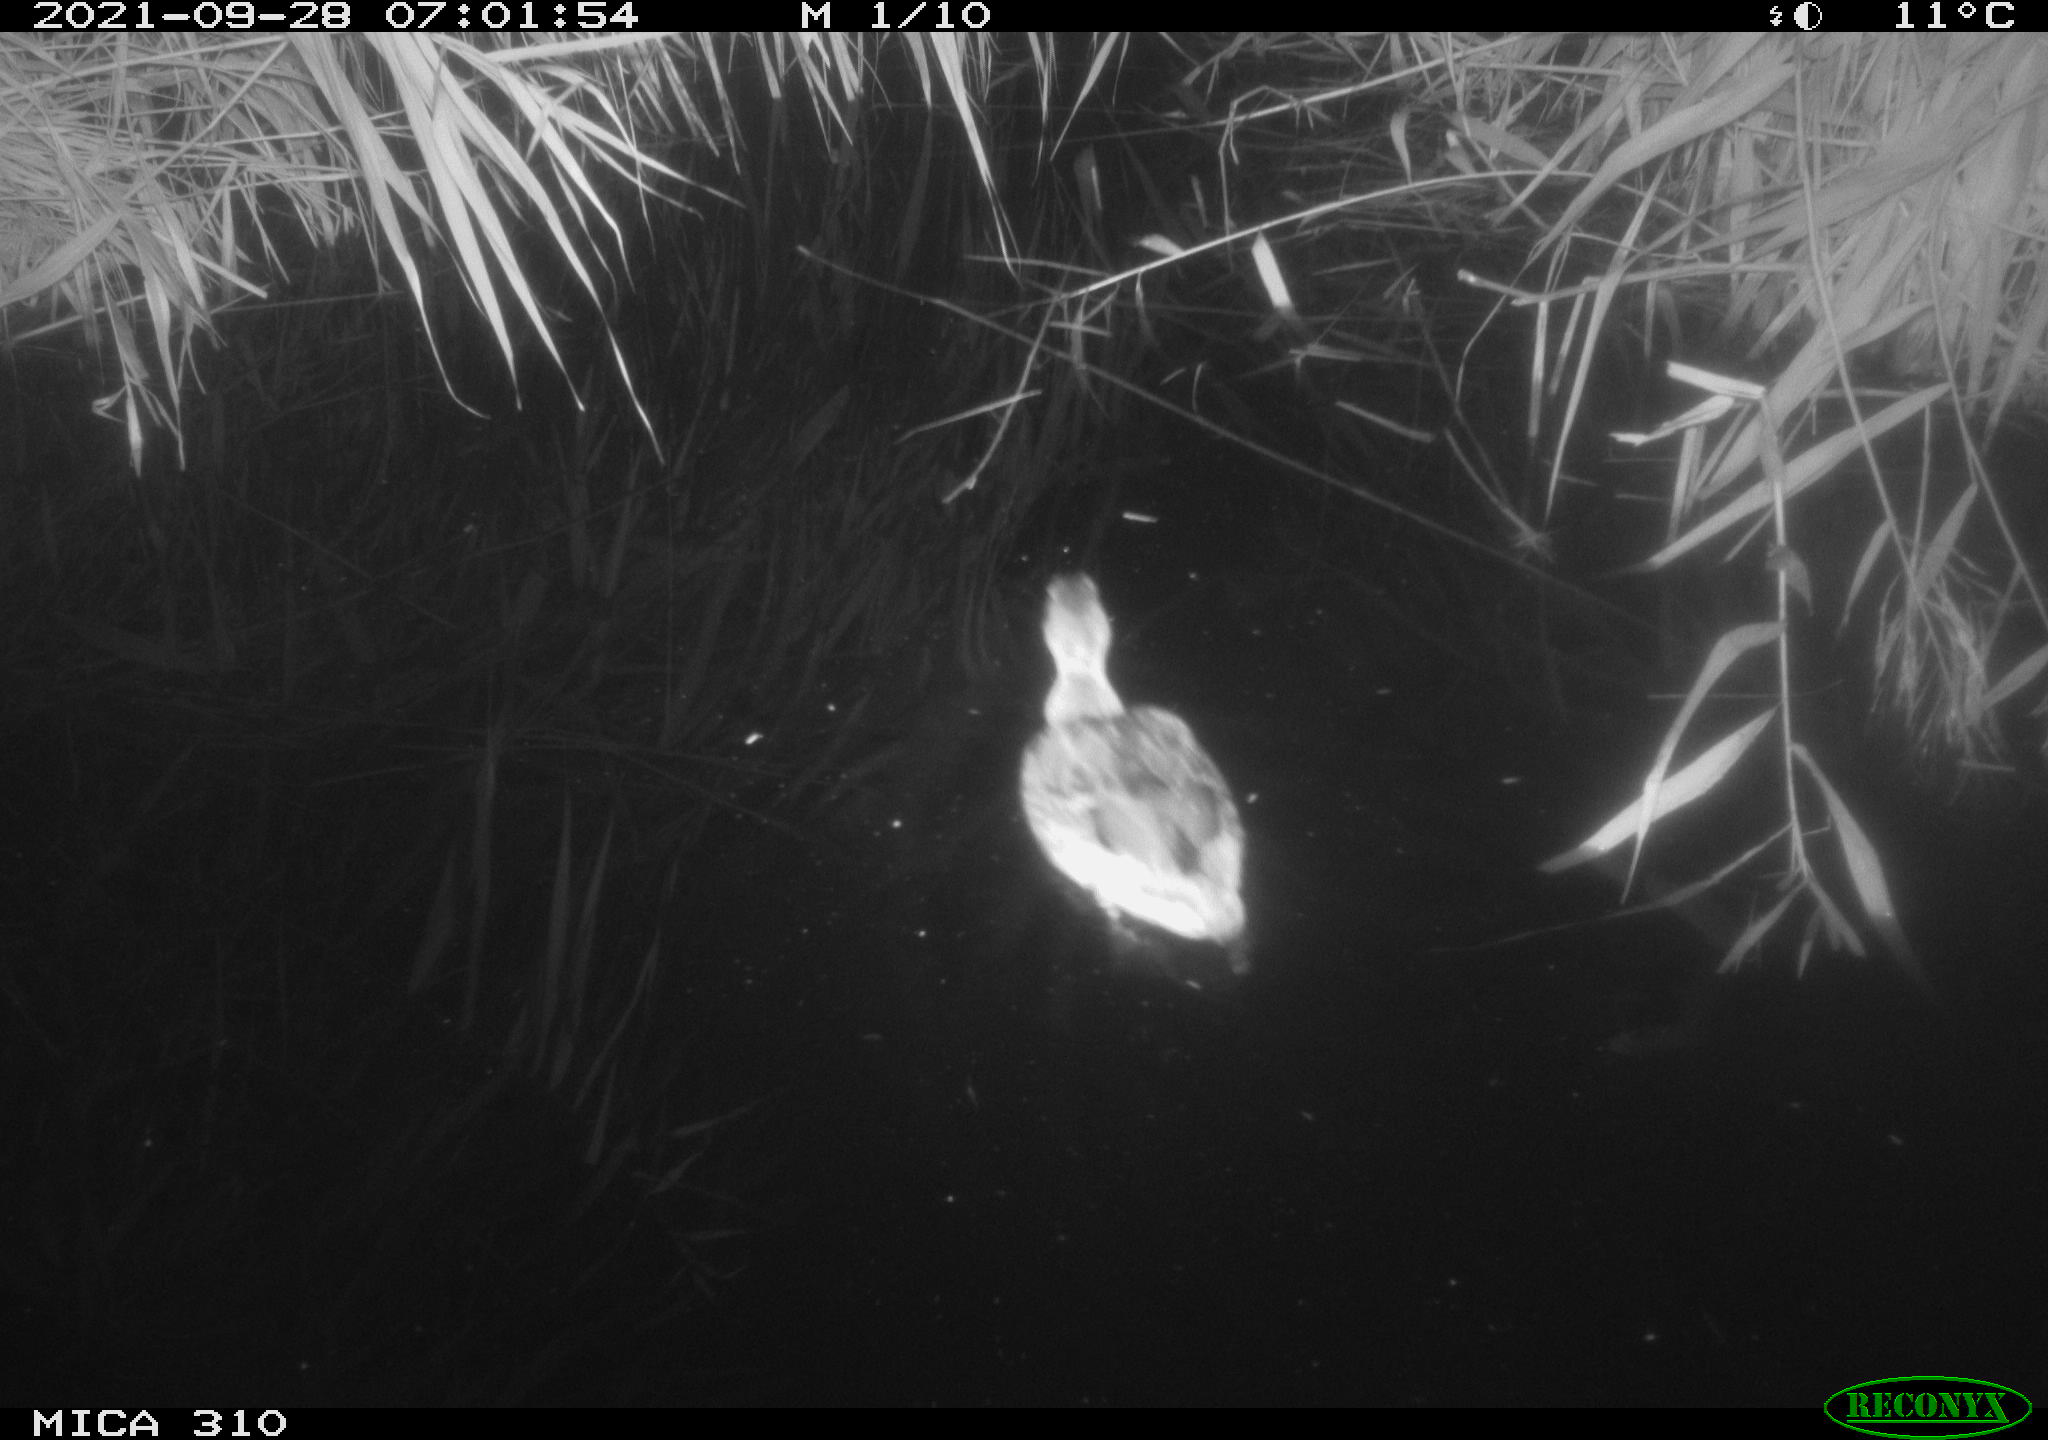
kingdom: Animalia
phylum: Chordata
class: Aves
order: Anseriformes
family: Anatidae
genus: Mareca
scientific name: Mareca strepera
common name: Gadwall
